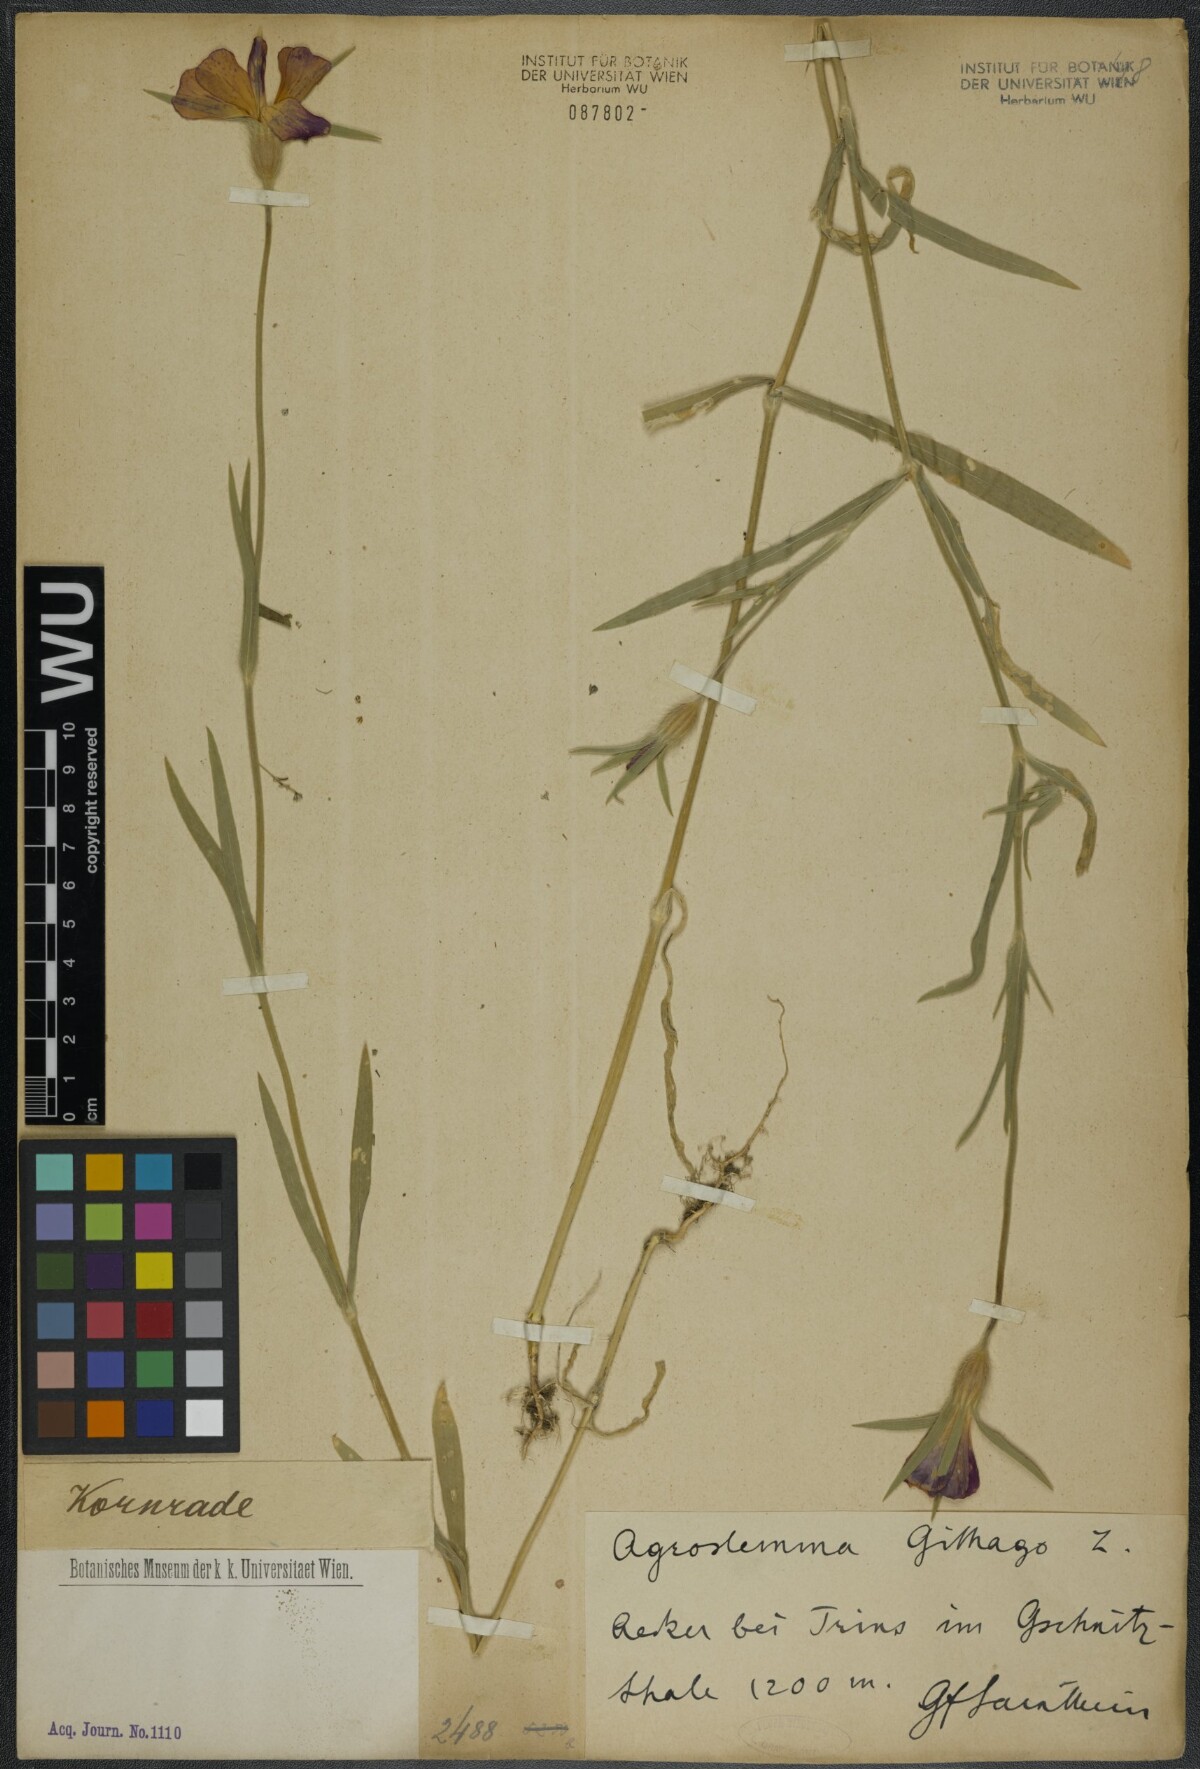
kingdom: Plantae
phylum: Tracheophyta
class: Magnoliopsida
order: Caryophyllales
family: Caryophyllaceae
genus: Agrostemma
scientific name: Agrostemma githago
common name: Common corncockle
